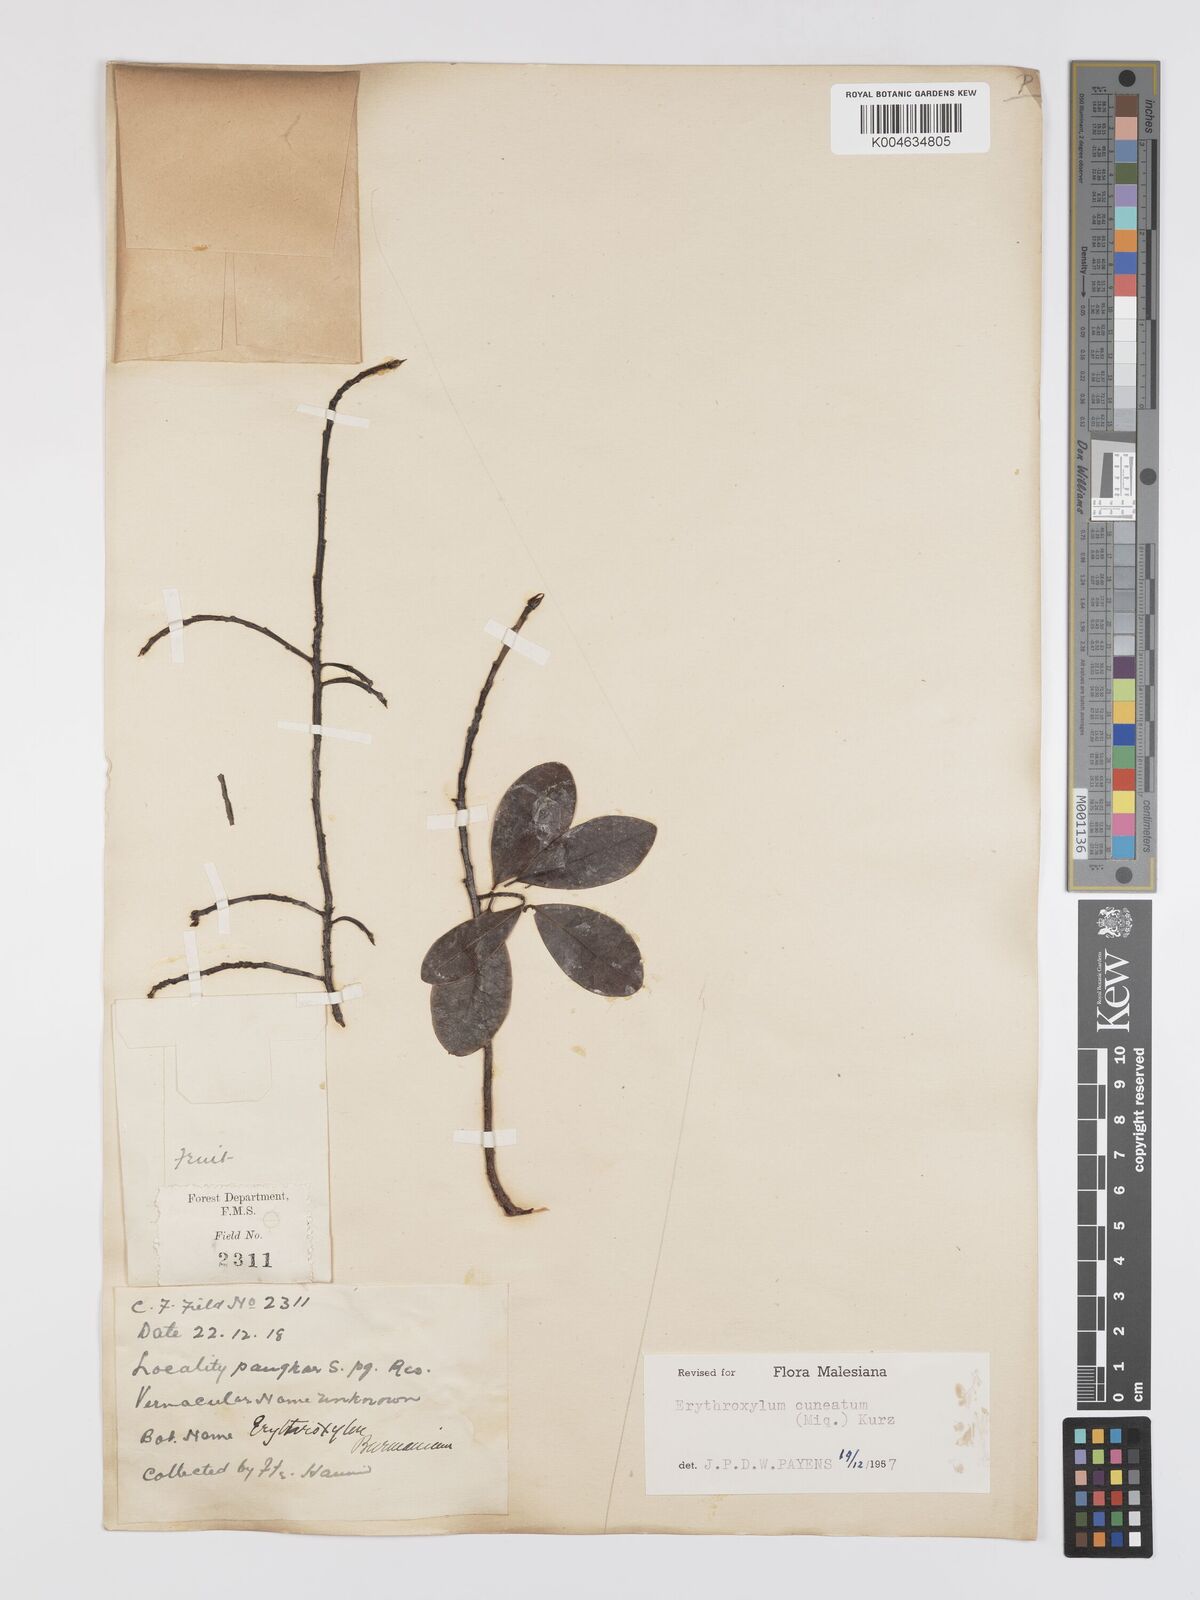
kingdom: Plantae
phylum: Tracheophyta
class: Magnoliopsida
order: Malpighiales
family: Erythroxylaceae
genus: Erythroxylum
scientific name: Erythroxylum cuneatum
